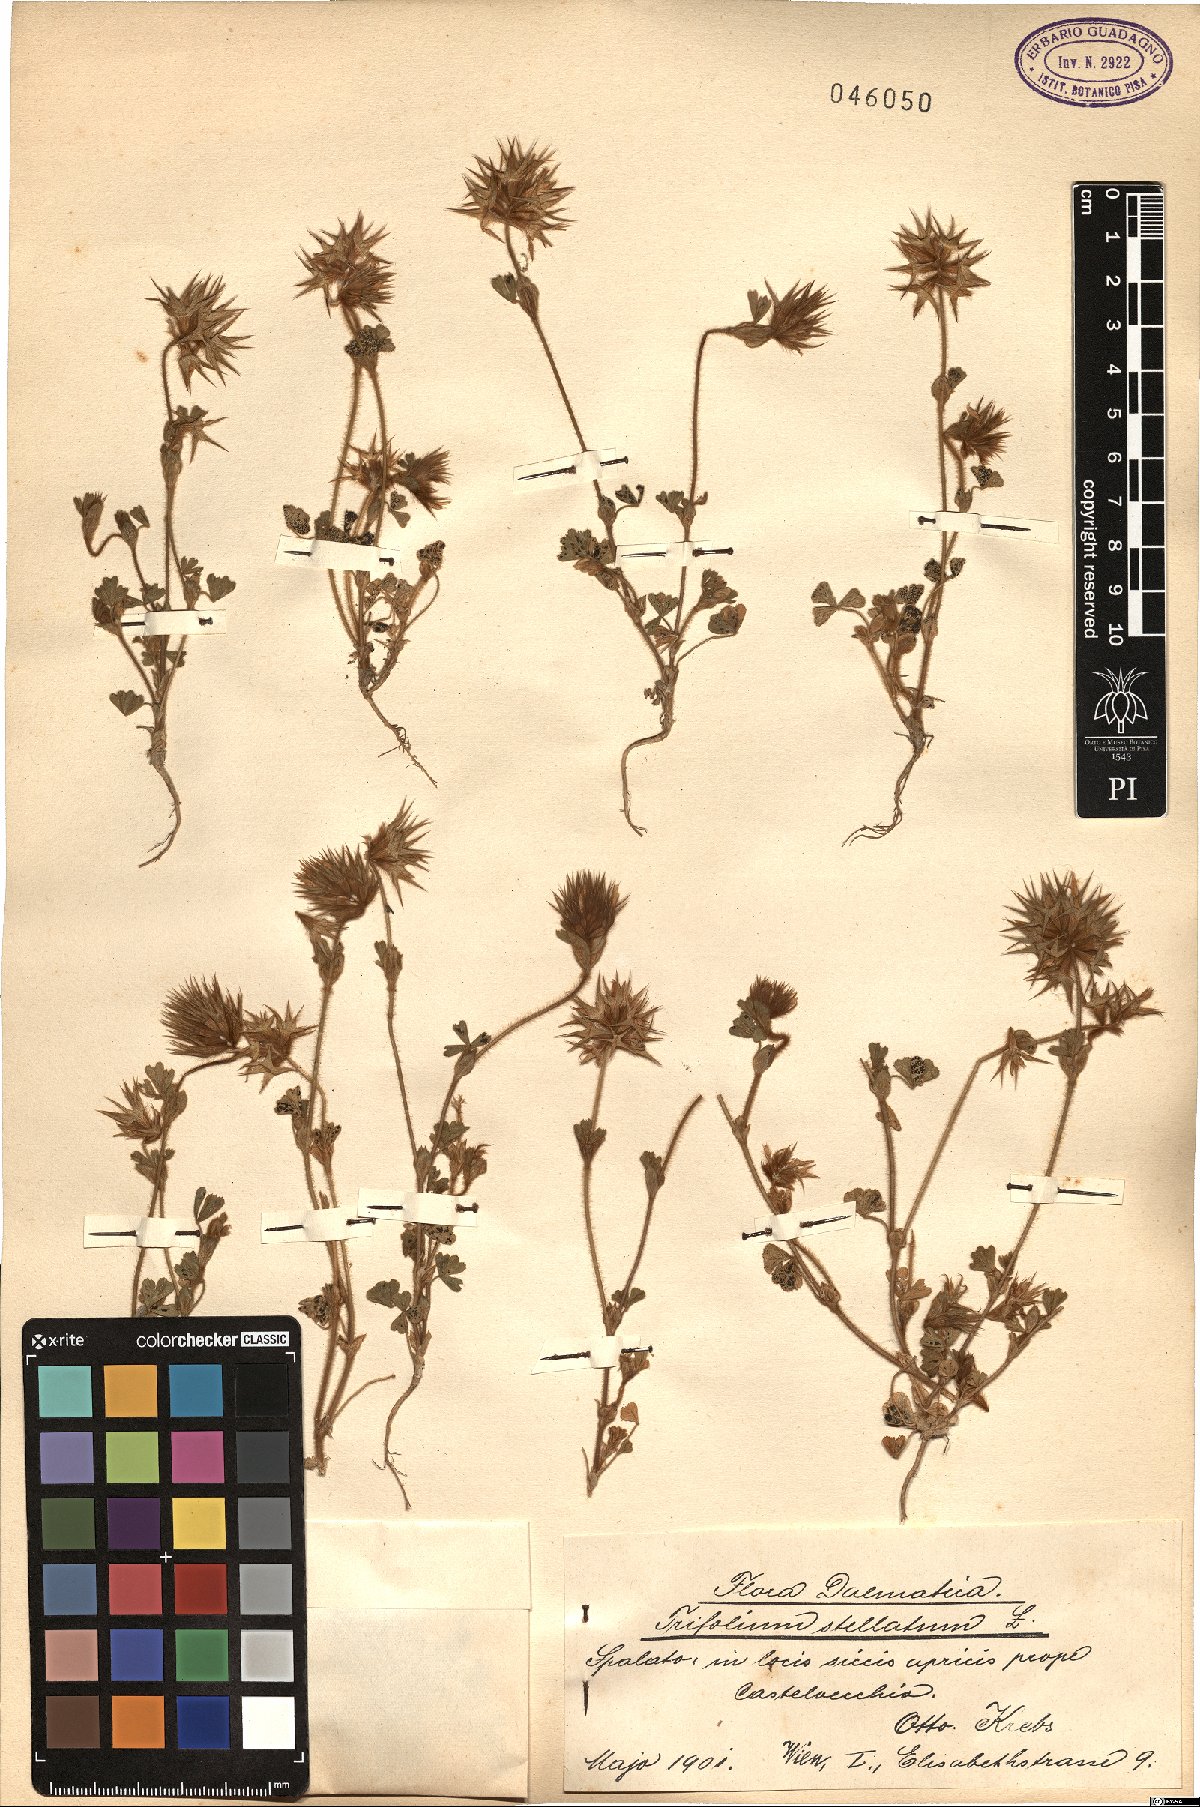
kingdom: Plantae
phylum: Tracheophyta
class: Magnoliopsida
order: Fabales
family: Fabaceae
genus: Trifolium
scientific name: Trifolium stellatum
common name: Starry clover
